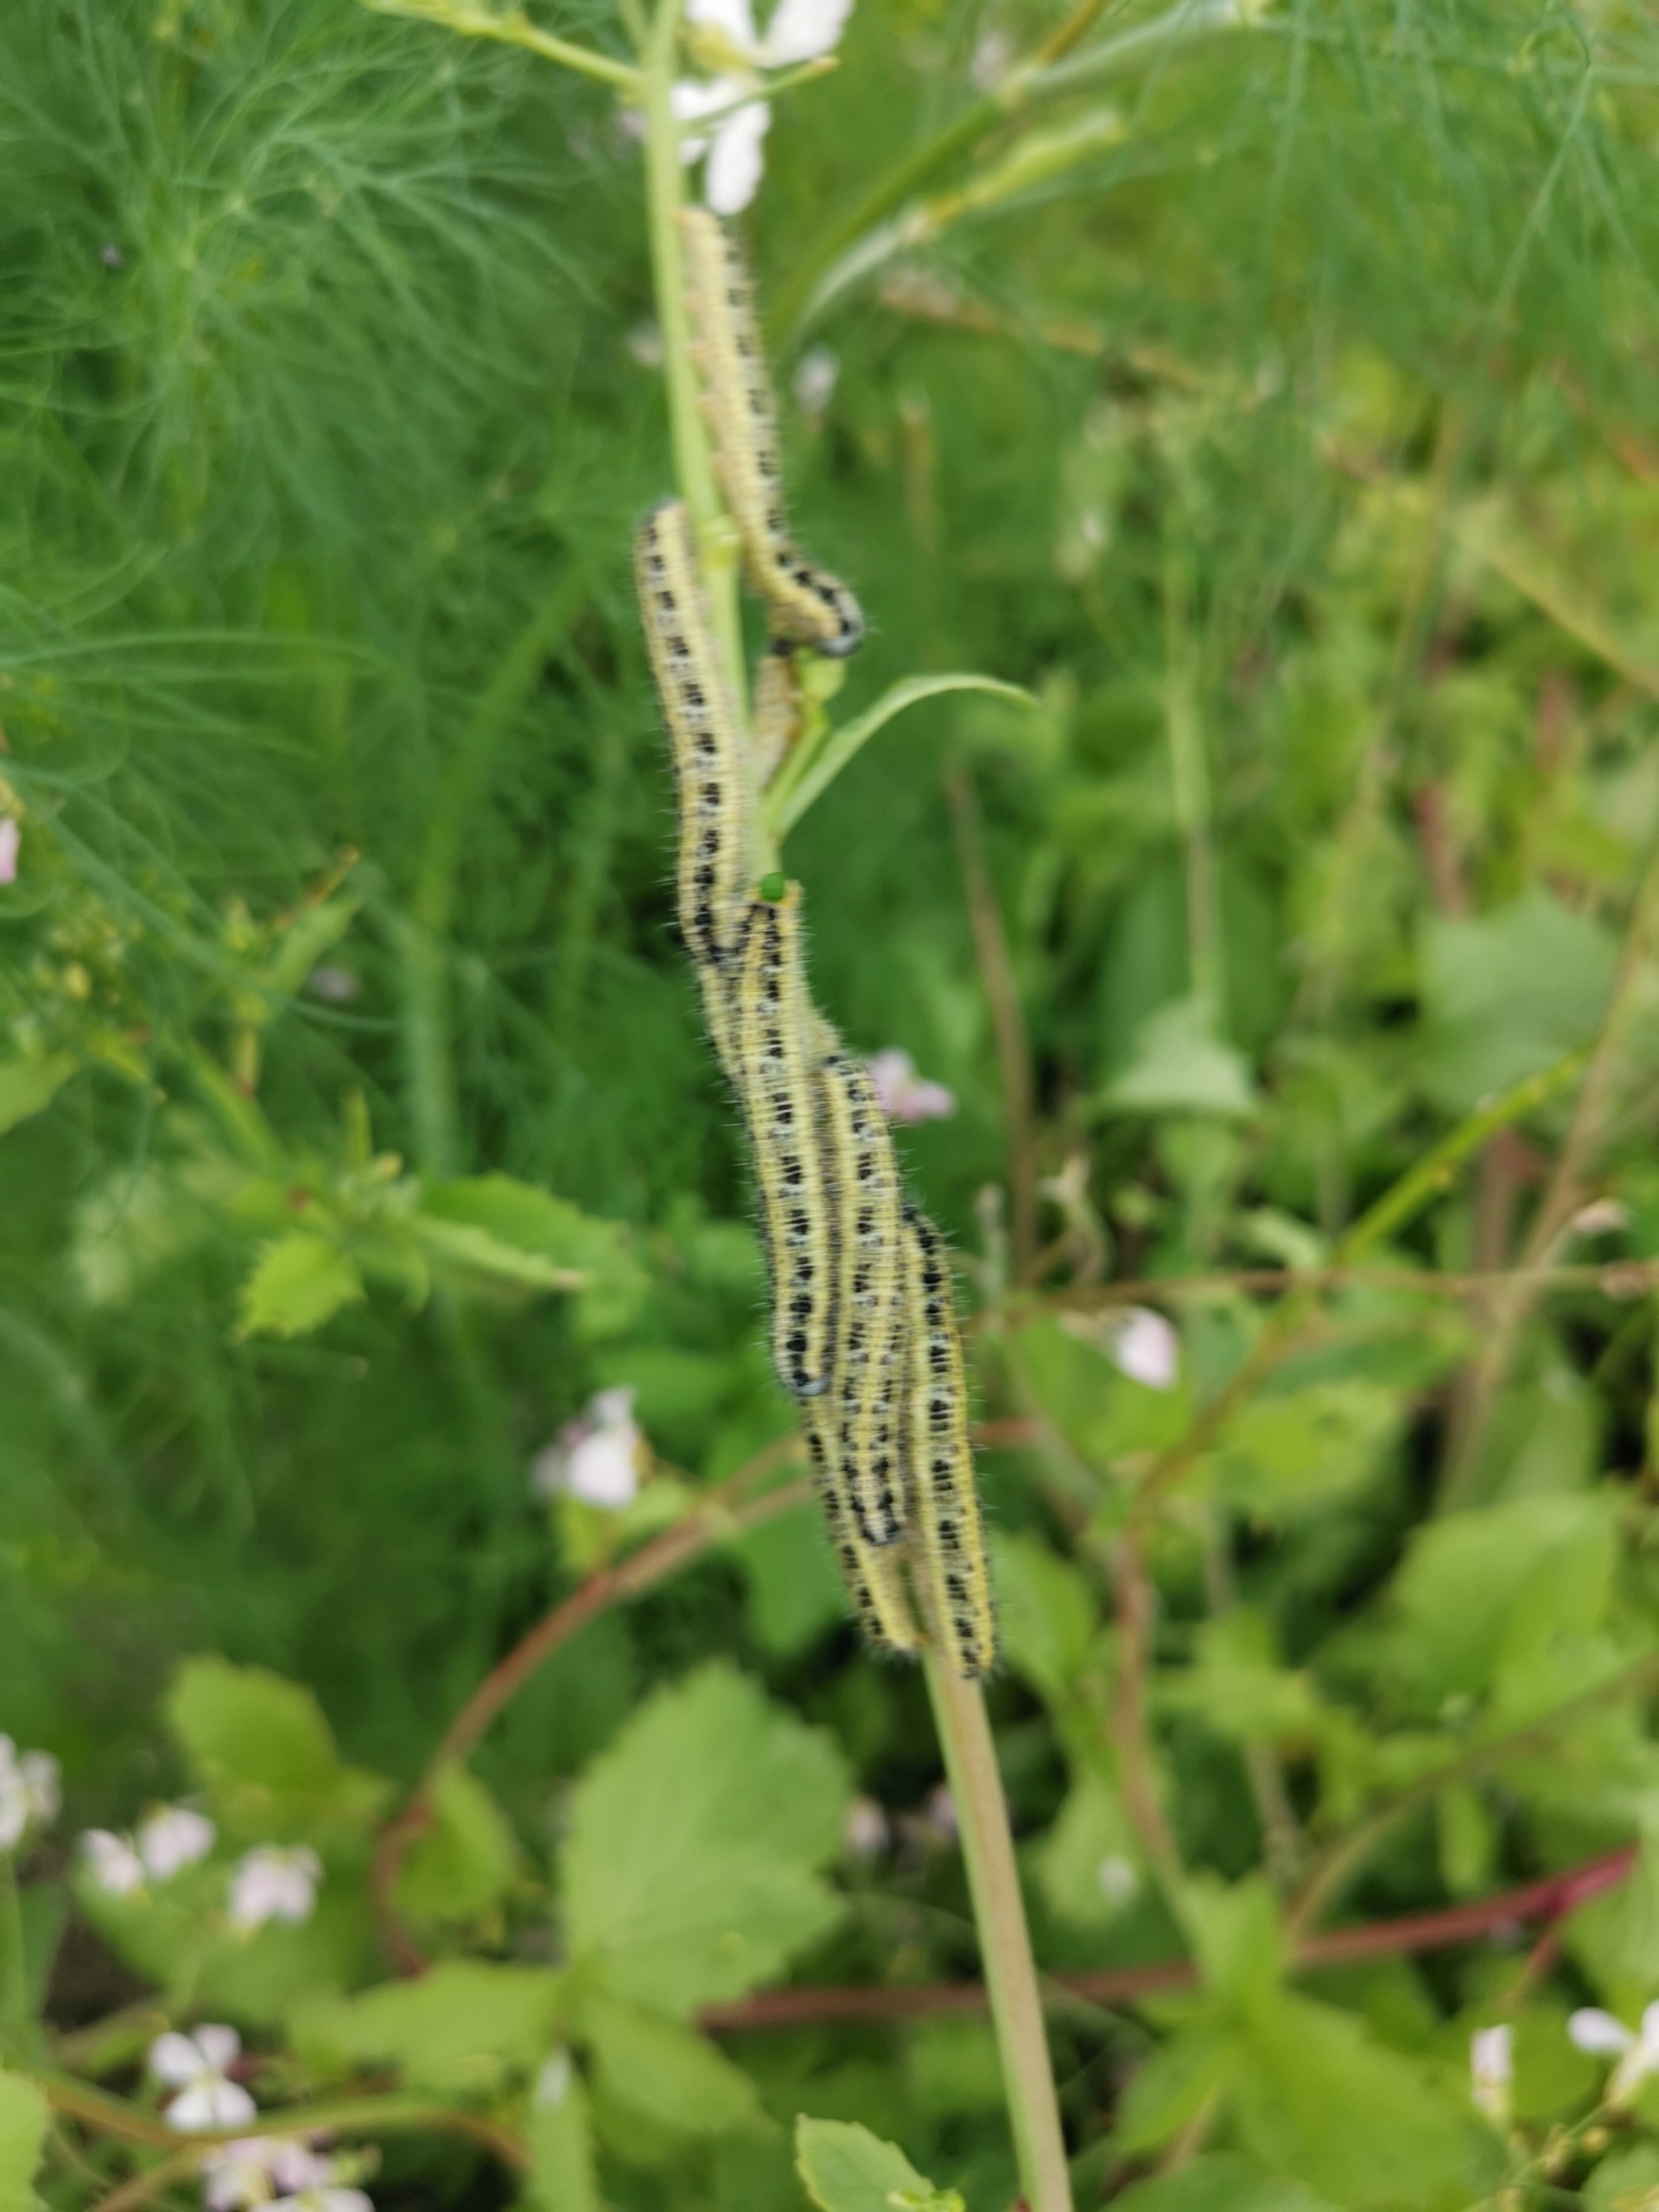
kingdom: Animalia
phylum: Arthropoda
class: Insecta
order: Lepidoptera
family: Pieridae
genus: Pieris
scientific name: Pieris brassicae
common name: Stor kålsommerfugl
